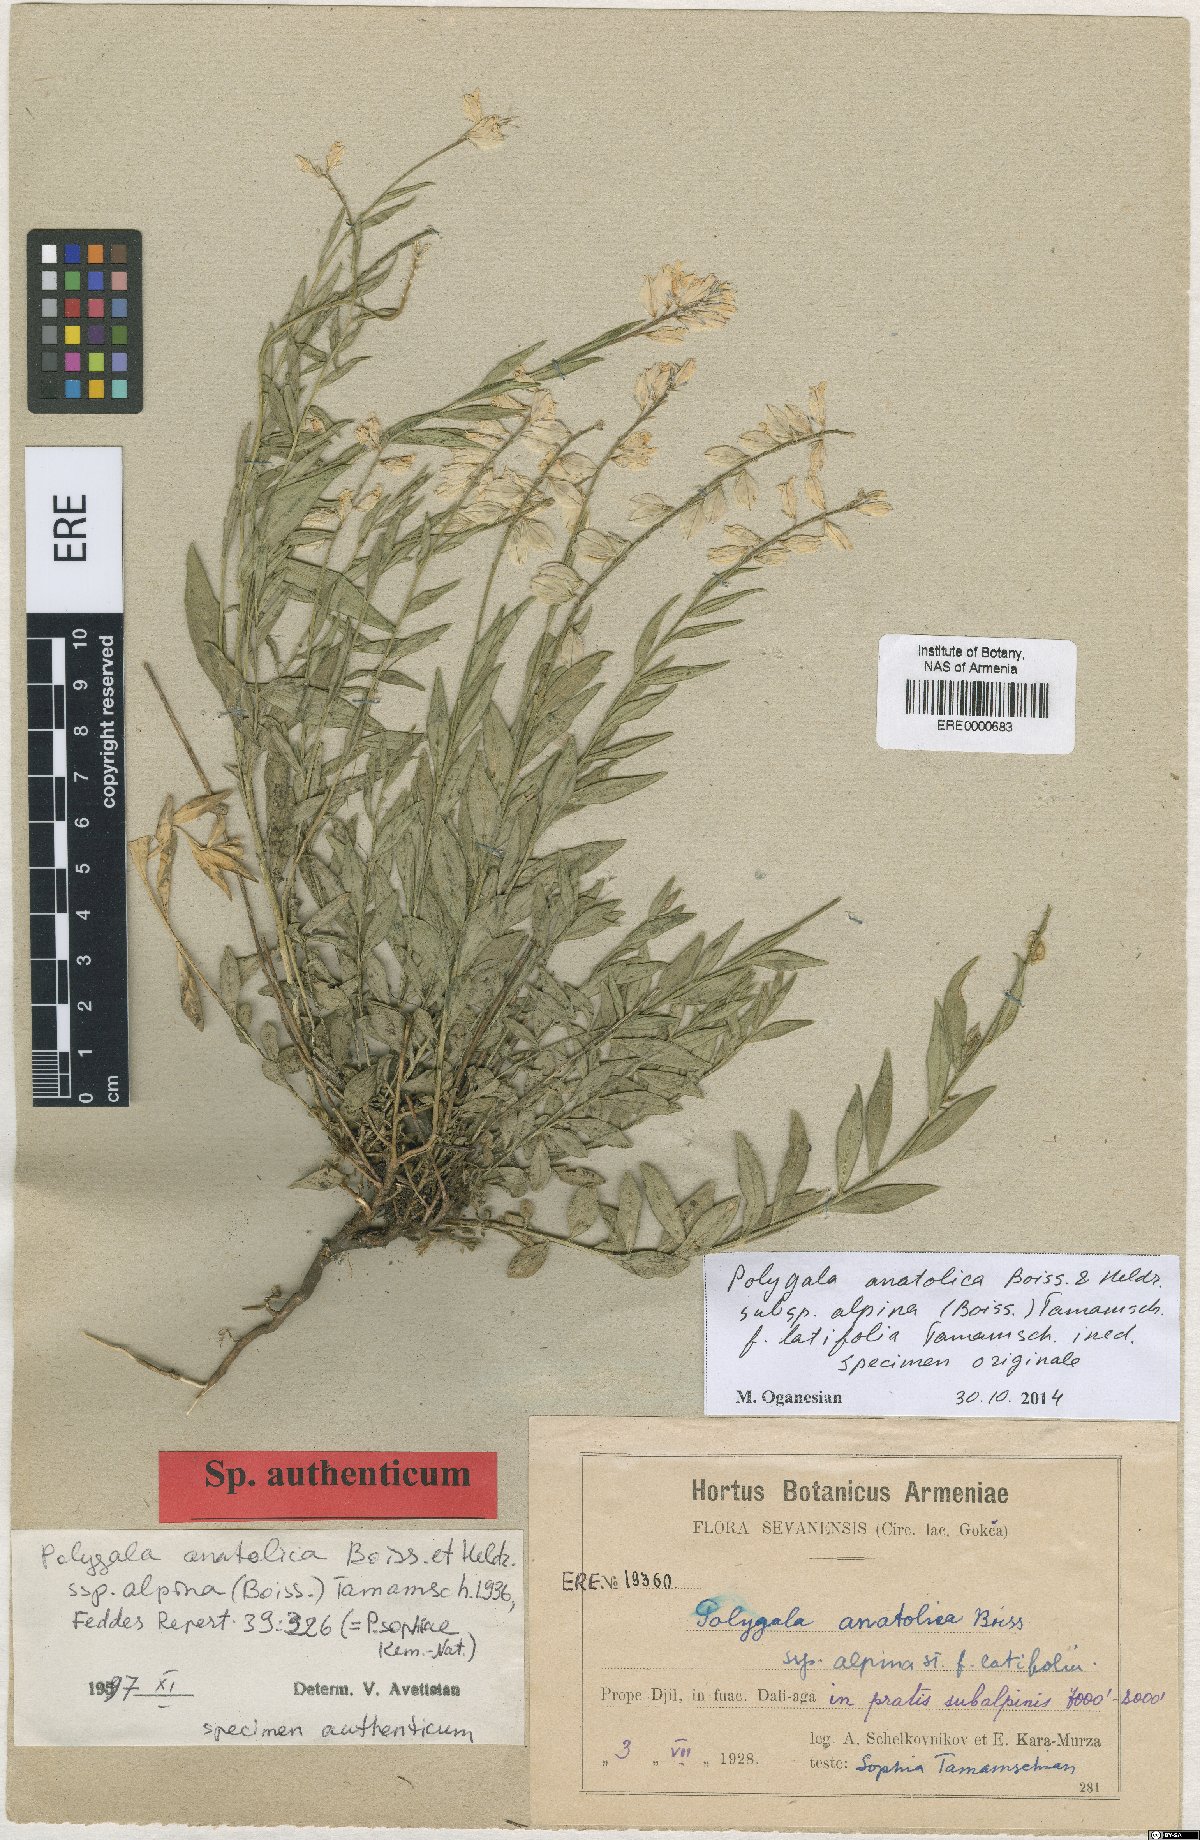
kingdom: Plantae
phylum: Tracheophyta
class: Magnoliopsida
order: Fabales
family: Polygalaceae
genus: Polygala
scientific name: Polygala anatolica
